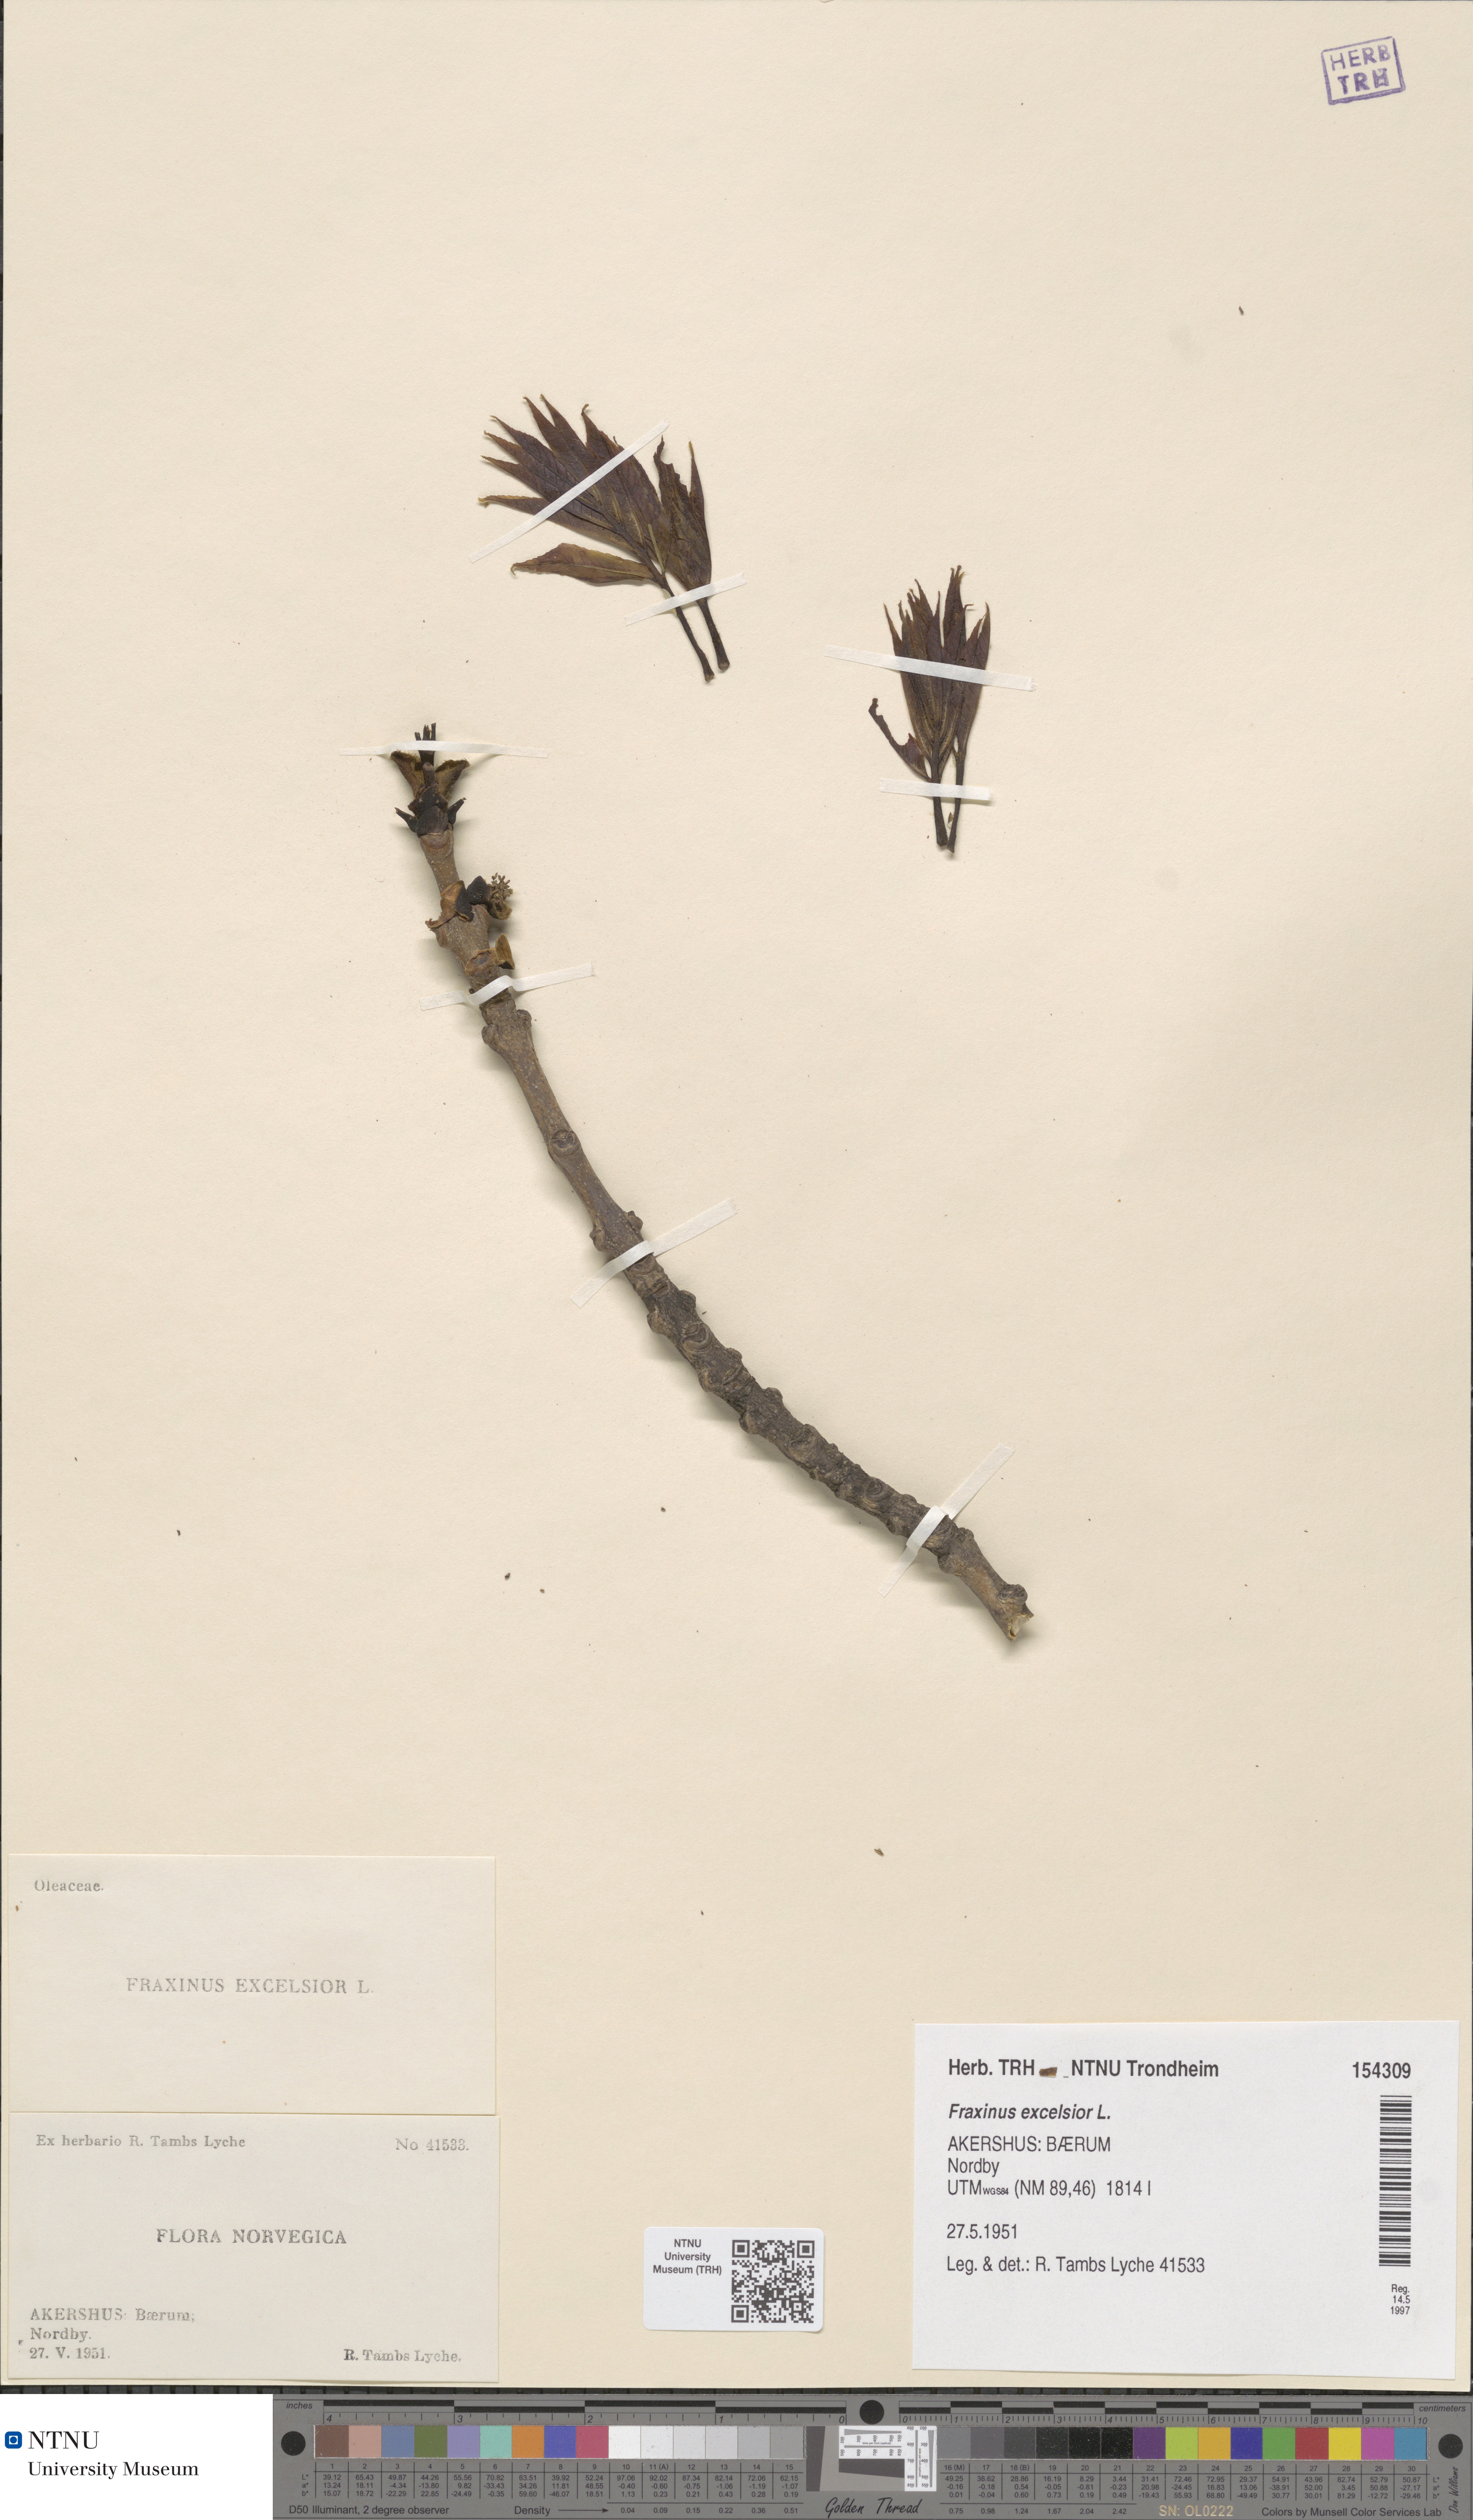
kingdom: Plantae
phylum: Tracheophyta
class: Magnoliopsida
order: Lamiales
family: Oleaceae
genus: Fraxinus
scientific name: Fraxinus excelsior
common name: European ash
